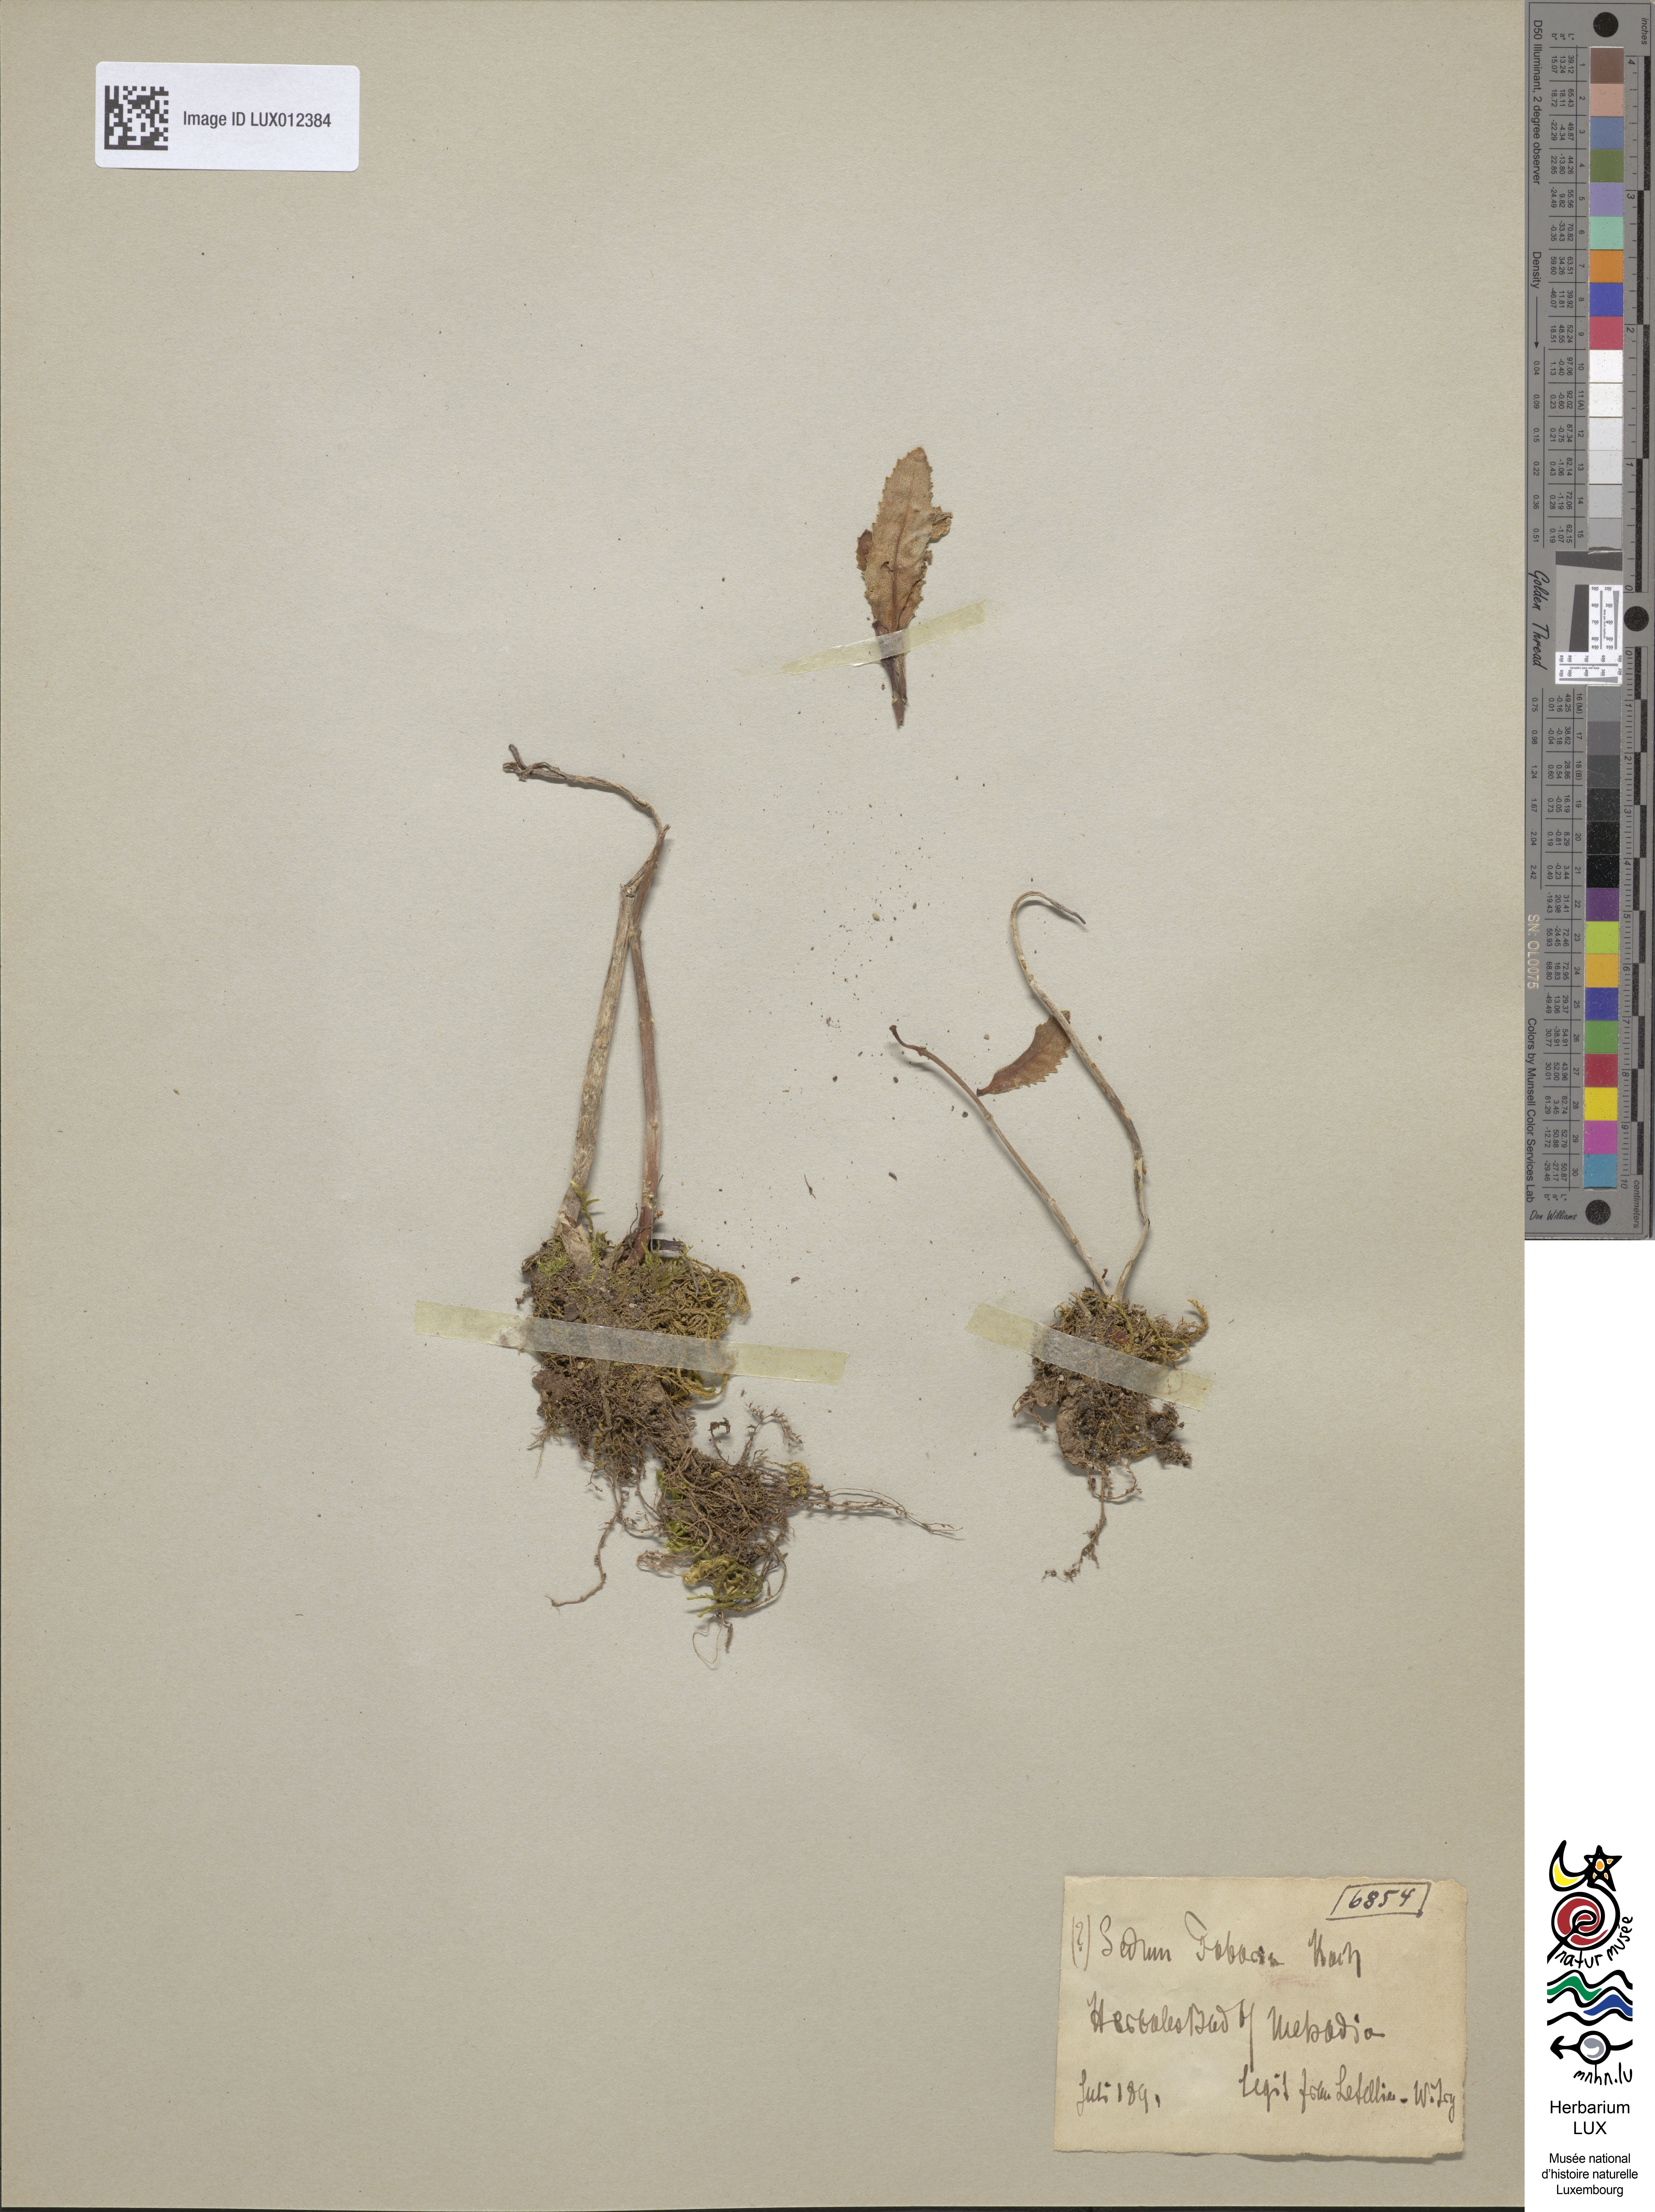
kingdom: Plantae
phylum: Tracheophyta
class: Magnoliopsida
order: Saxifragales
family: Crassulaceae
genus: Hylotelephium
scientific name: Hylotelephium vulgare
